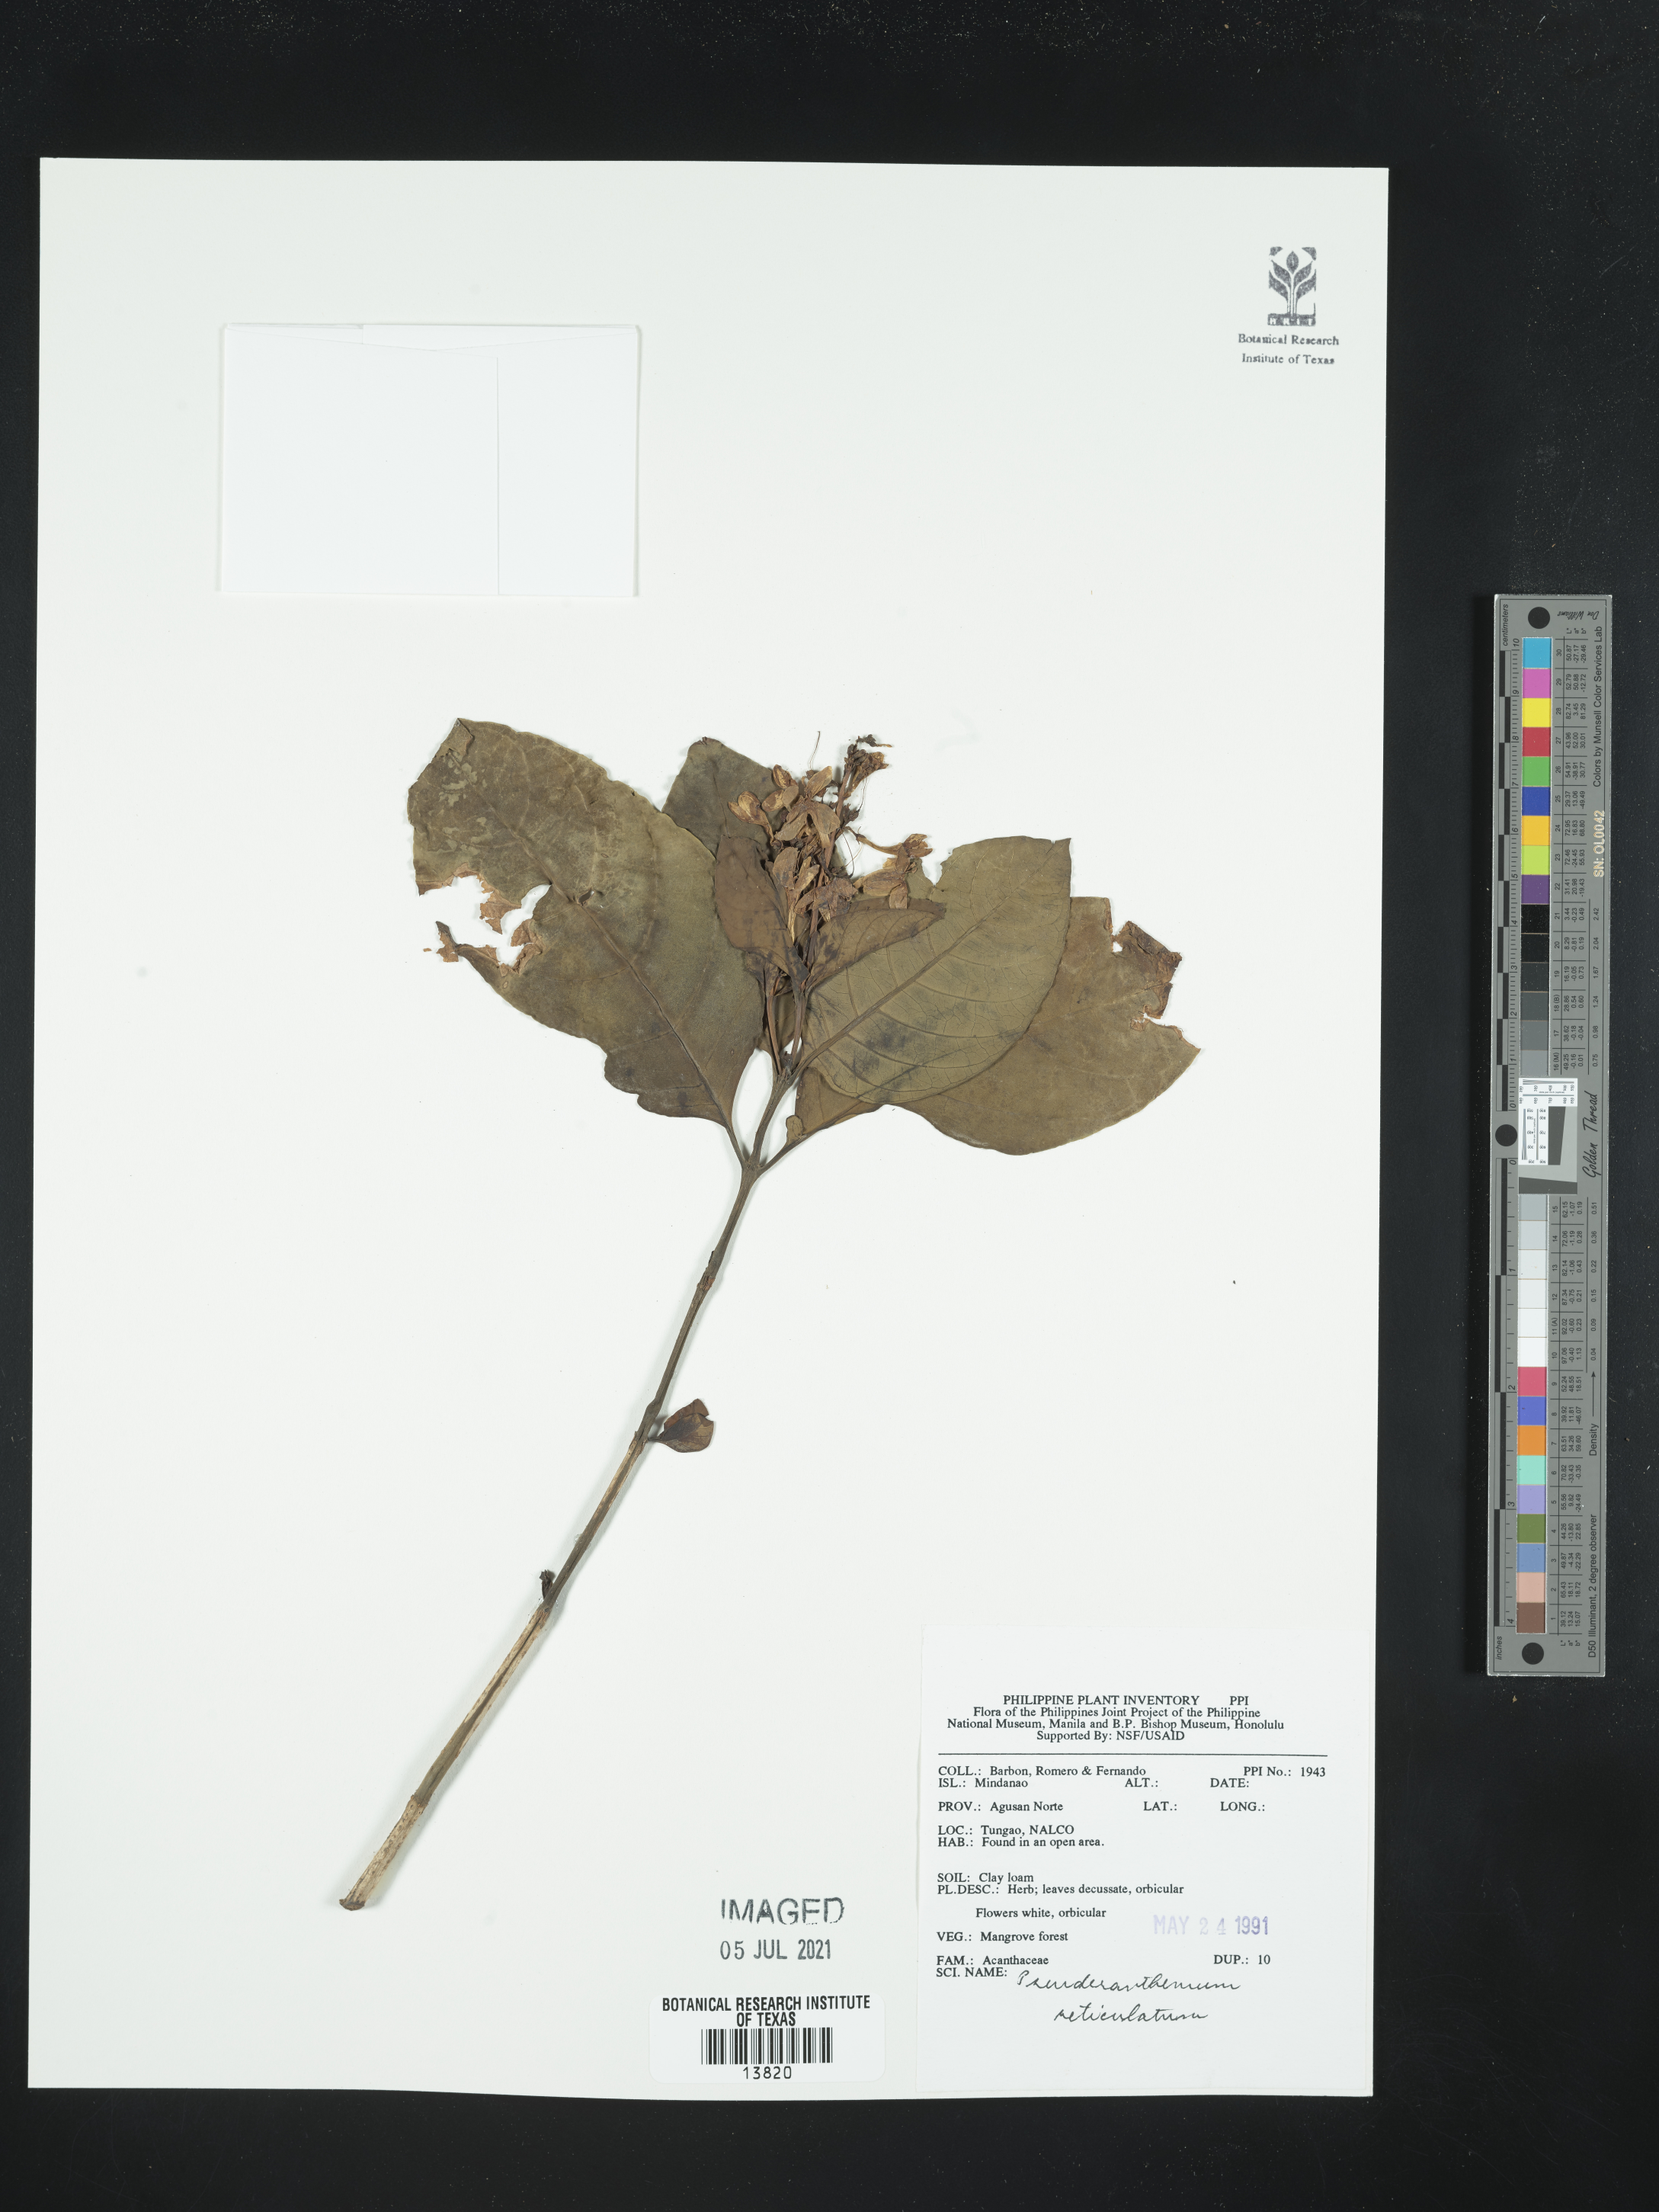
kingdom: Plantae
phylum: Tracheophyta
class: Magnoliopsida
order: Lamiales
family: Acanthaceae
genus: Pseuderanthemum
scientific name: Pseuderanthemum maculatum
